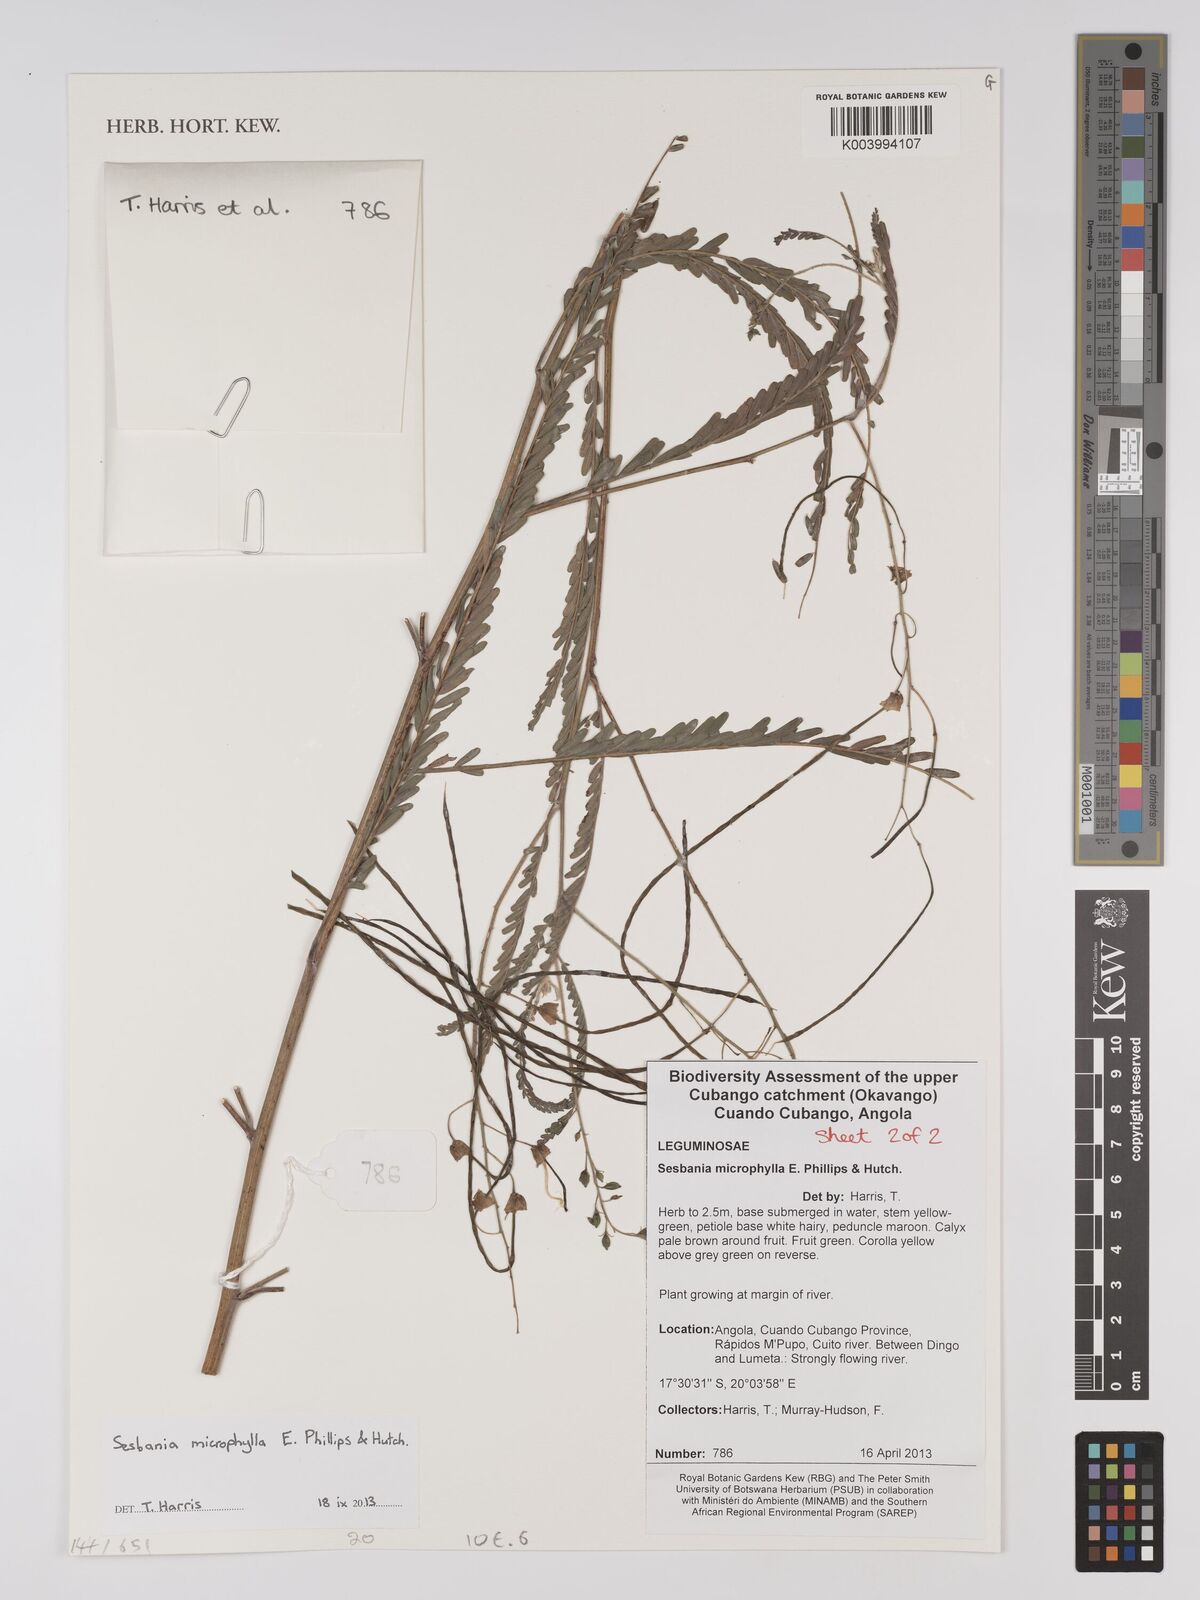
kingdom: Plantae
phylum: Tracheophyta
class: Magnoliopsida
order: Fabales
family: Fabaceae
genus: Sesbania
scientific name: Sesbania microphylla
